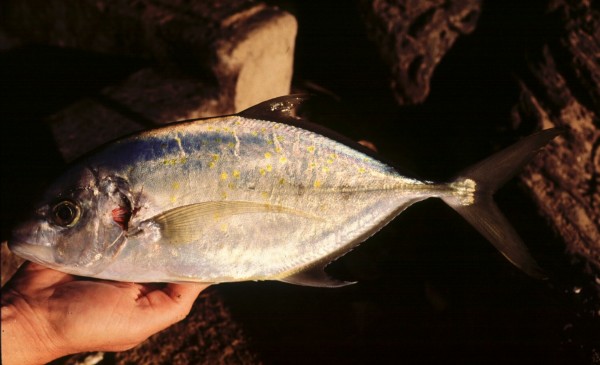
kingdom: Animalia
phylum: Chordata
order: Perciformes
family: Carangidae
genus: Carangoides
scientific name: Carangoides fulvoguttatus
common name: Yellowspotted trevally
